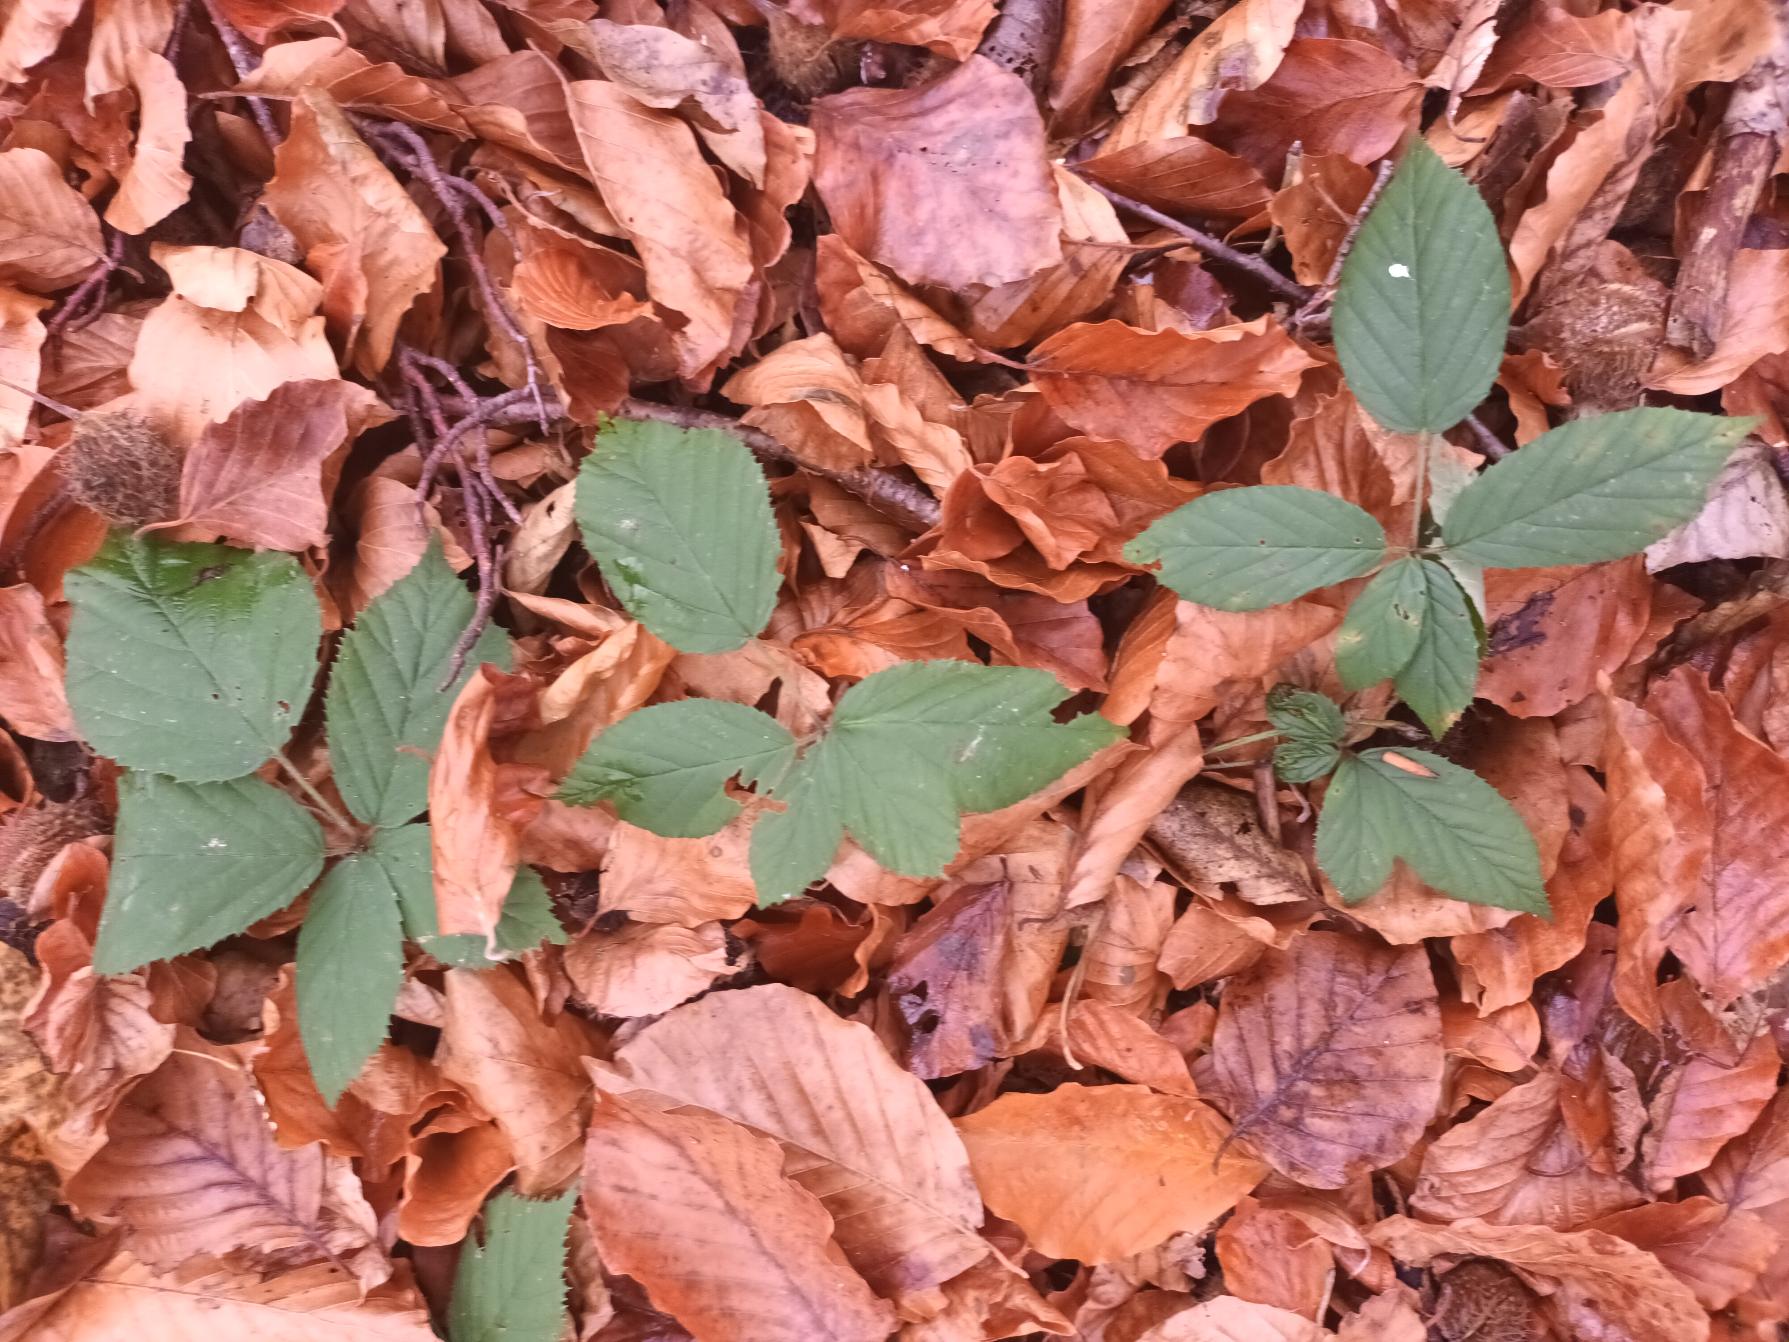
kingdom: Plantae
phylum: Tracheophyta
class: Magnoliopsida
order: Rosales
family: Rosaceae
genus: Rubus
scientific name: Rubus radula
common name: Rasperu brombær
